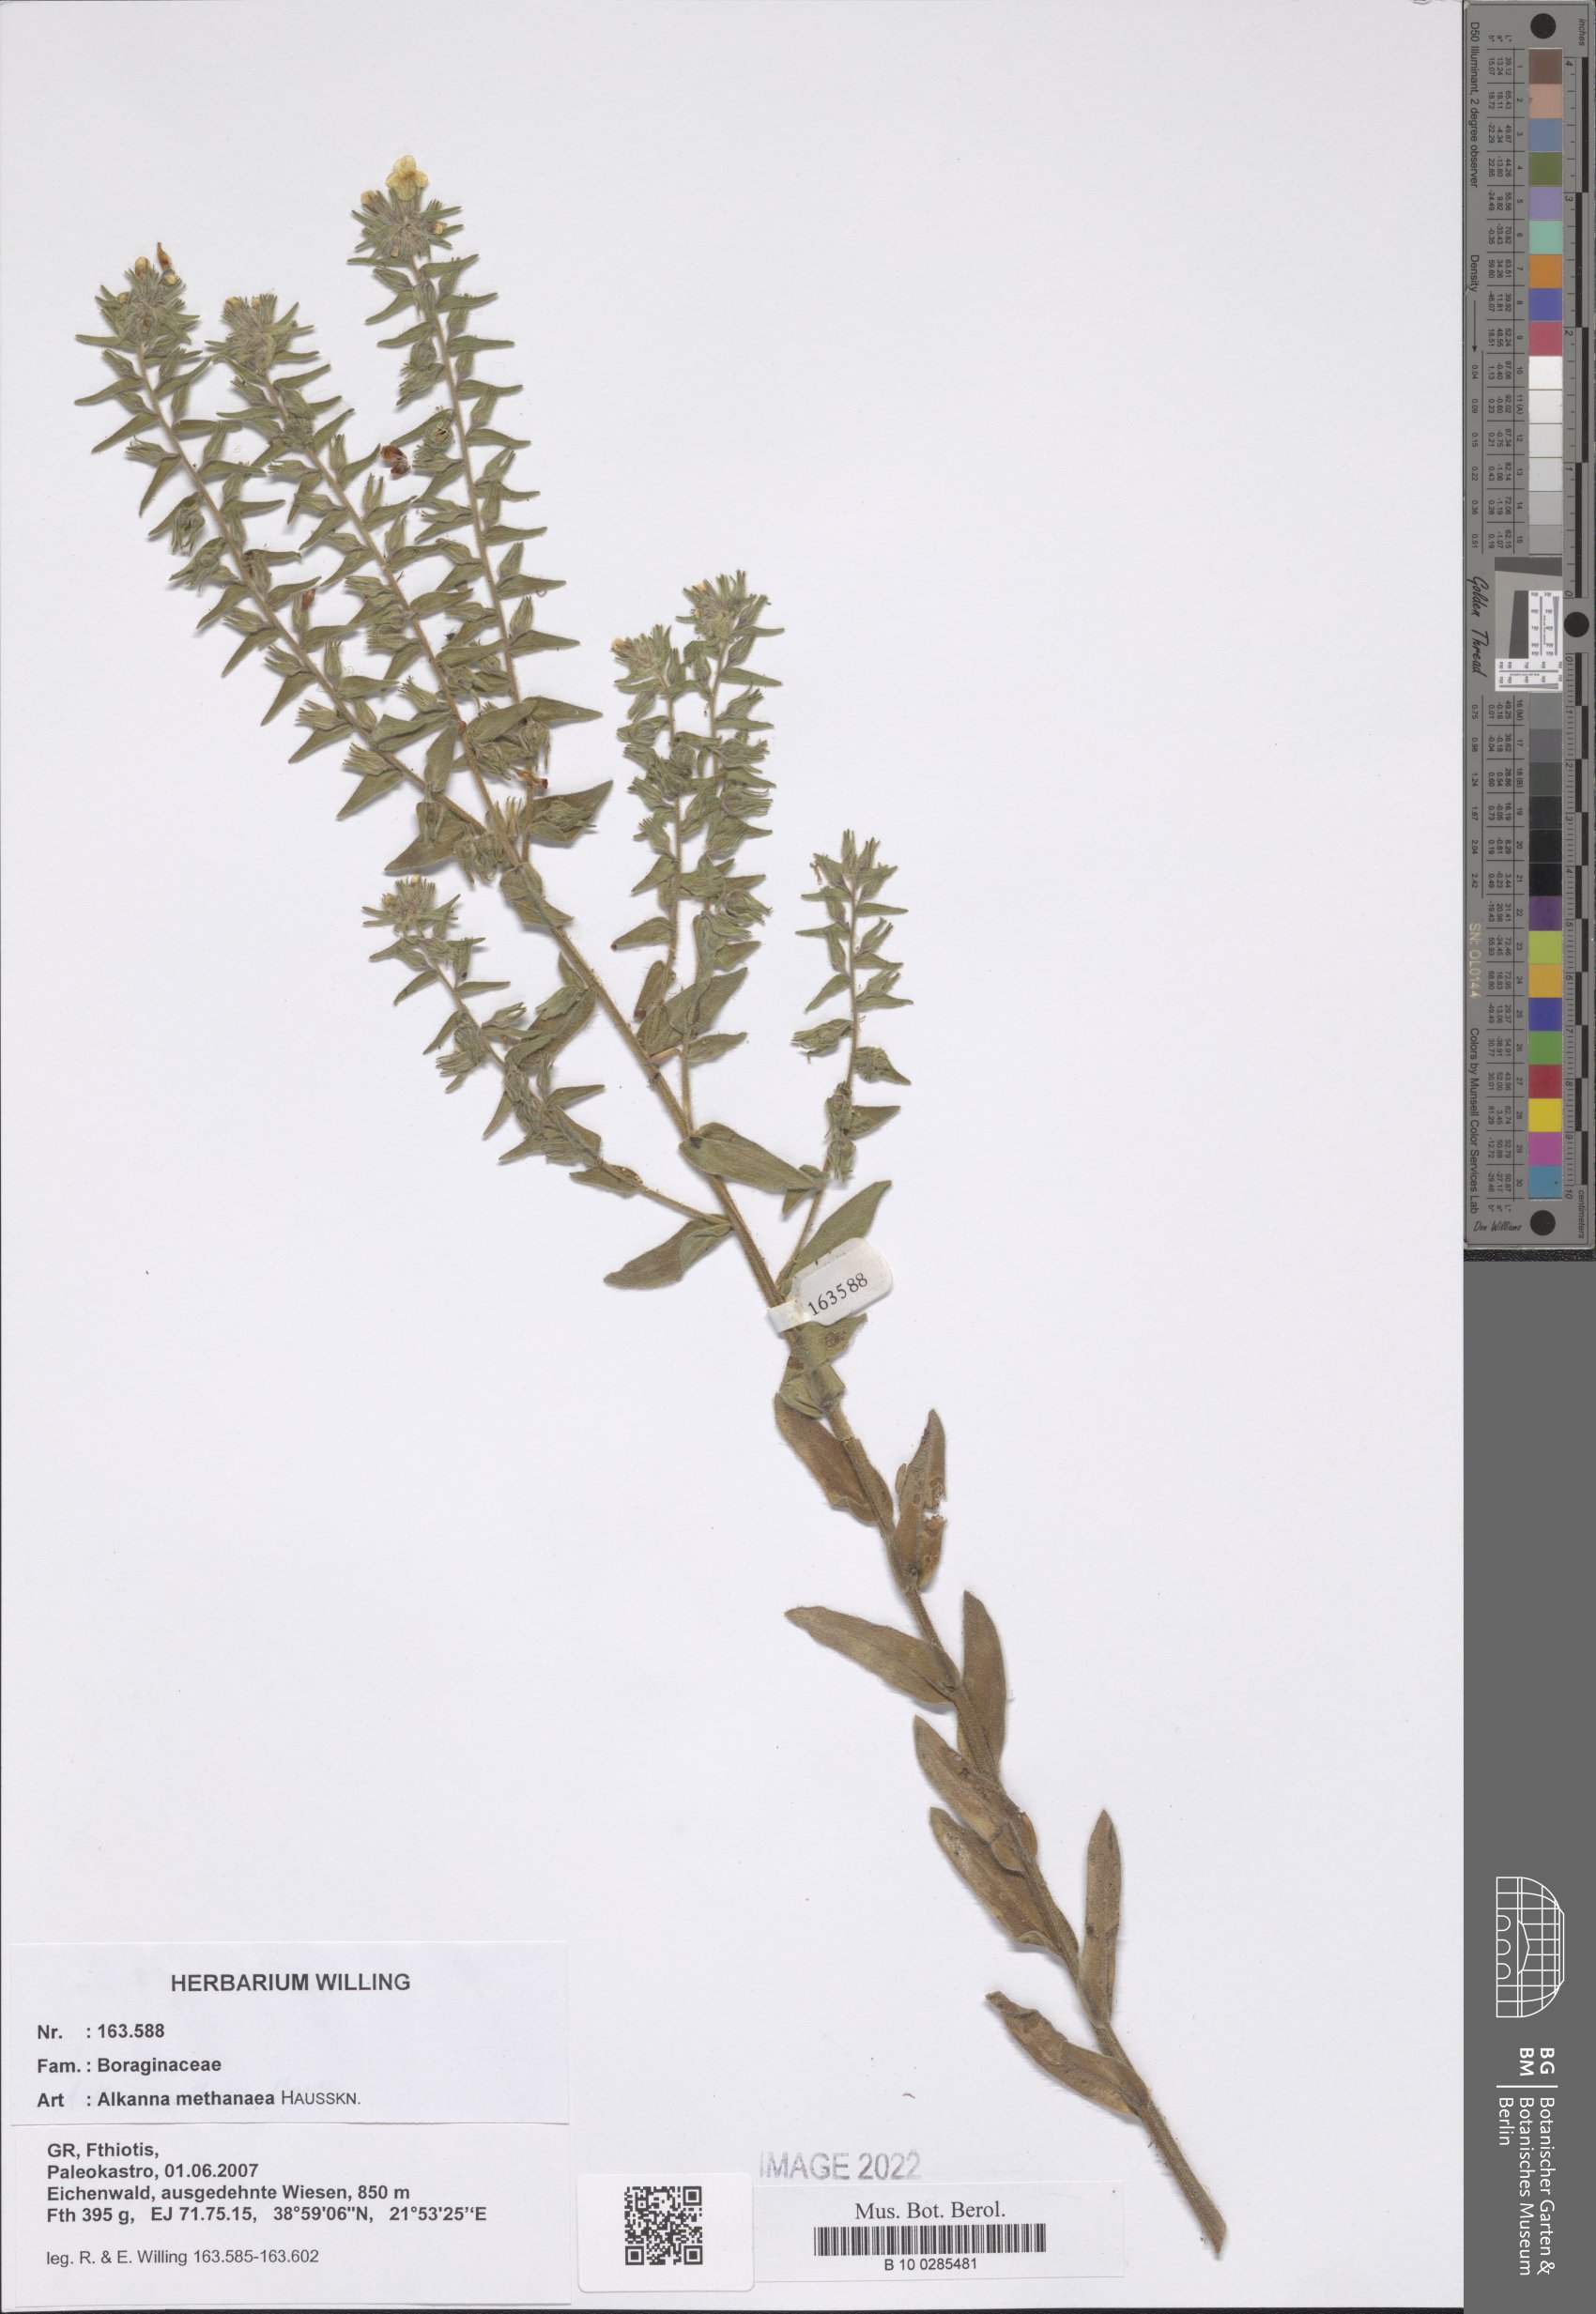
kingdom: Plantae
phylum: Tracheophyta
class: Magnoliopsida
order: Boraginales
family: Boraginaceae
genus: Alkanna
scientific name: Alkanna methanaea
